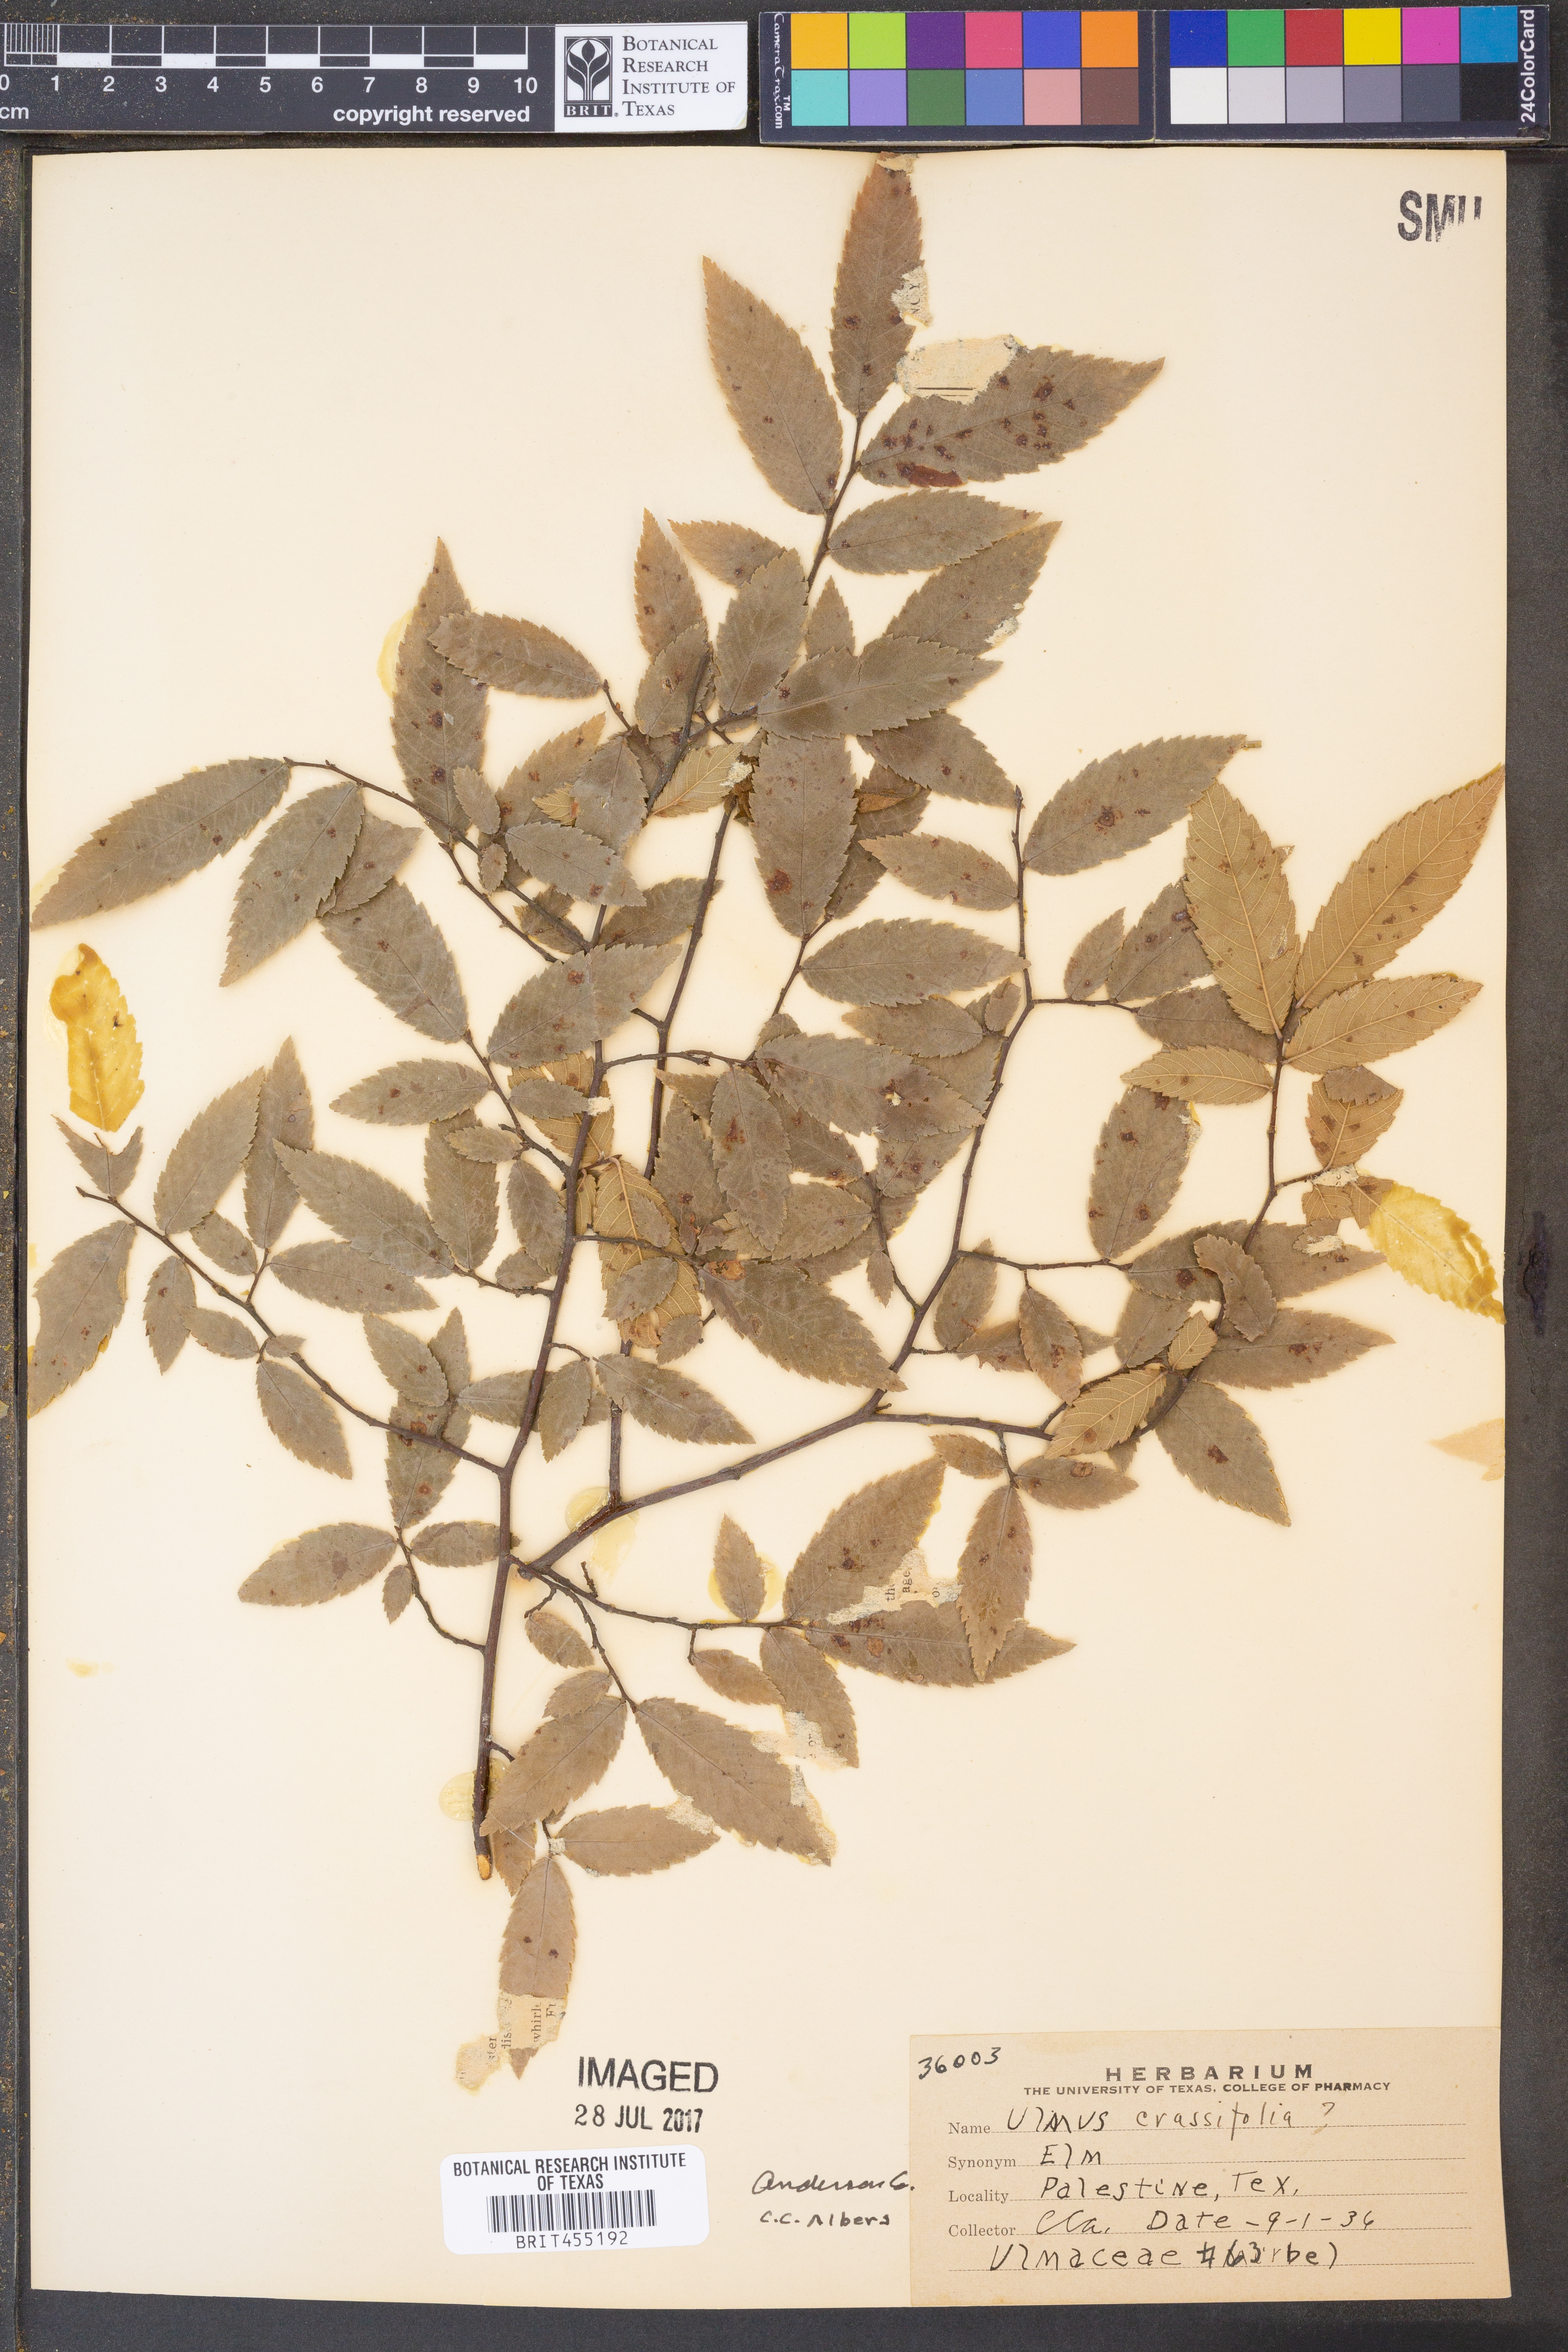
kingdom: Plantae
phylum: Tracheophyta
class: Magnoliopsida
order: Rosales
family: Ulmaceae
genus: Ulmus
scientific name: Ulmus crassifolia
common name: Basket elm
